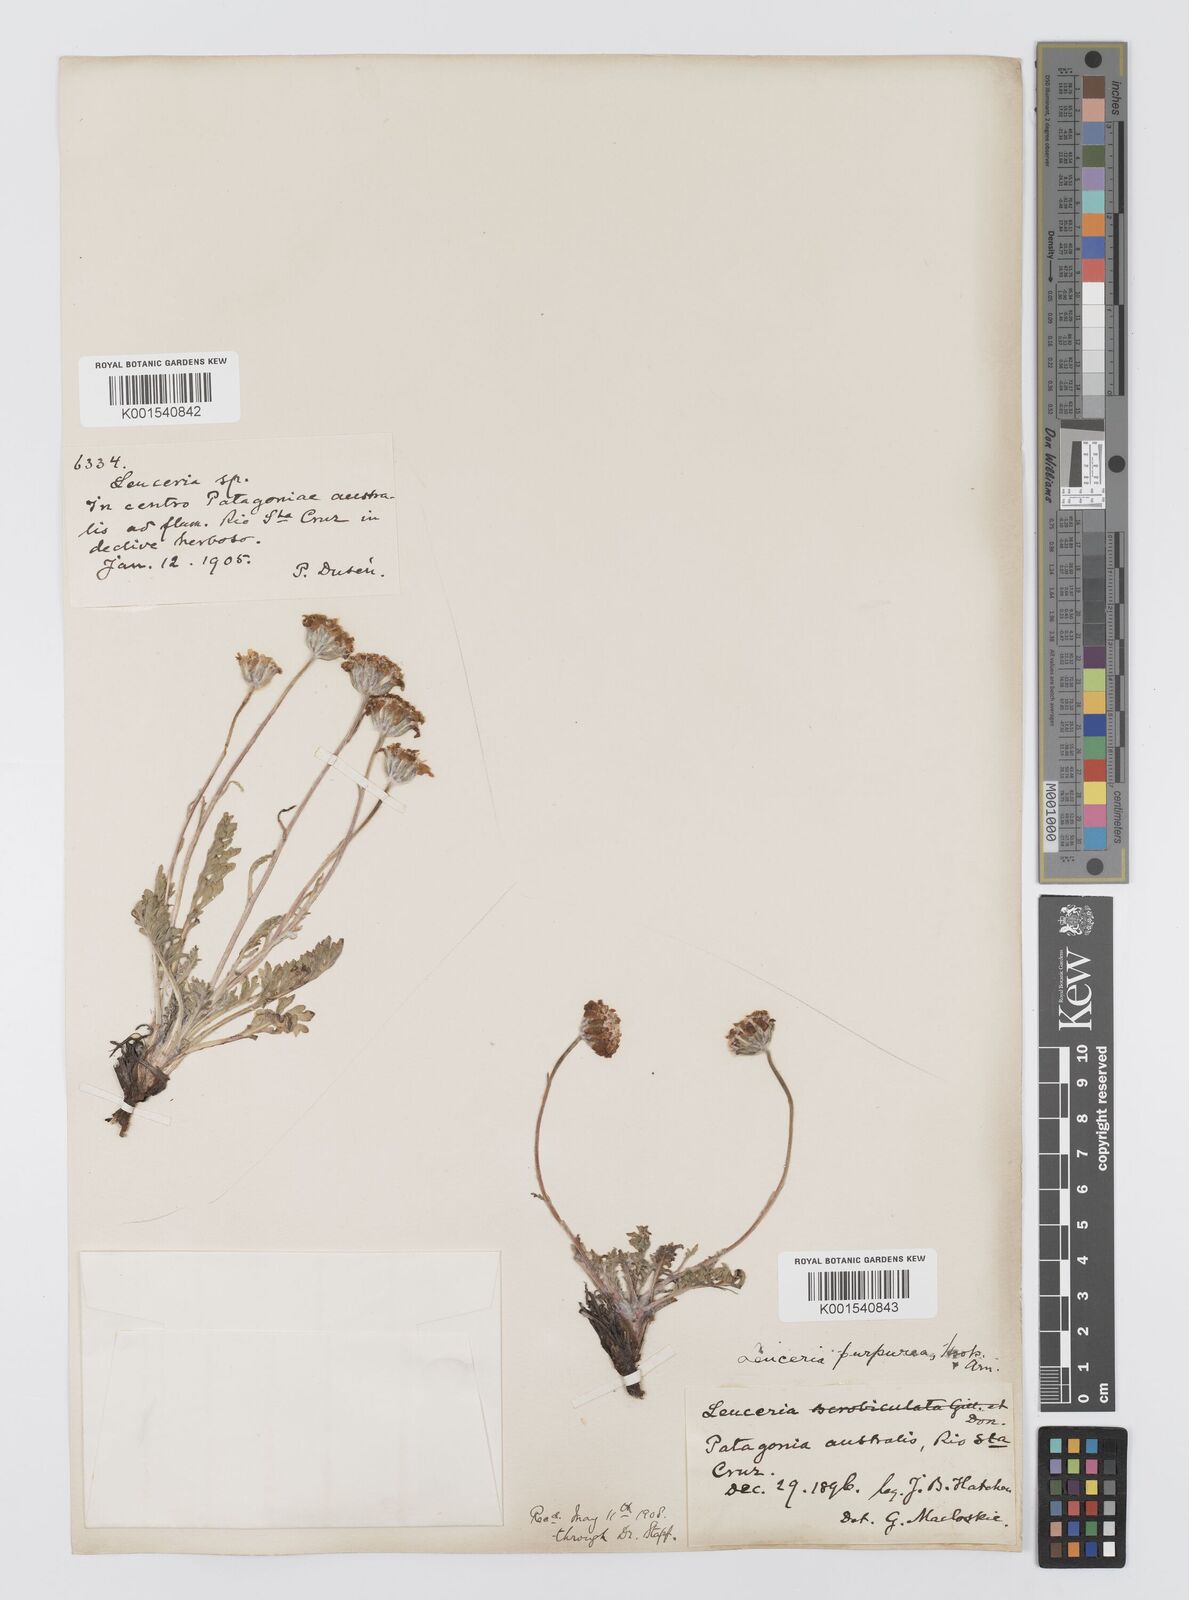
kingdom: Plantae
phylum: Tracheophyta
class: Magnoliopsida
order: Asterales
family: Asteraceae
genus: Leucheria
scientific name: Leucheria purpurea
